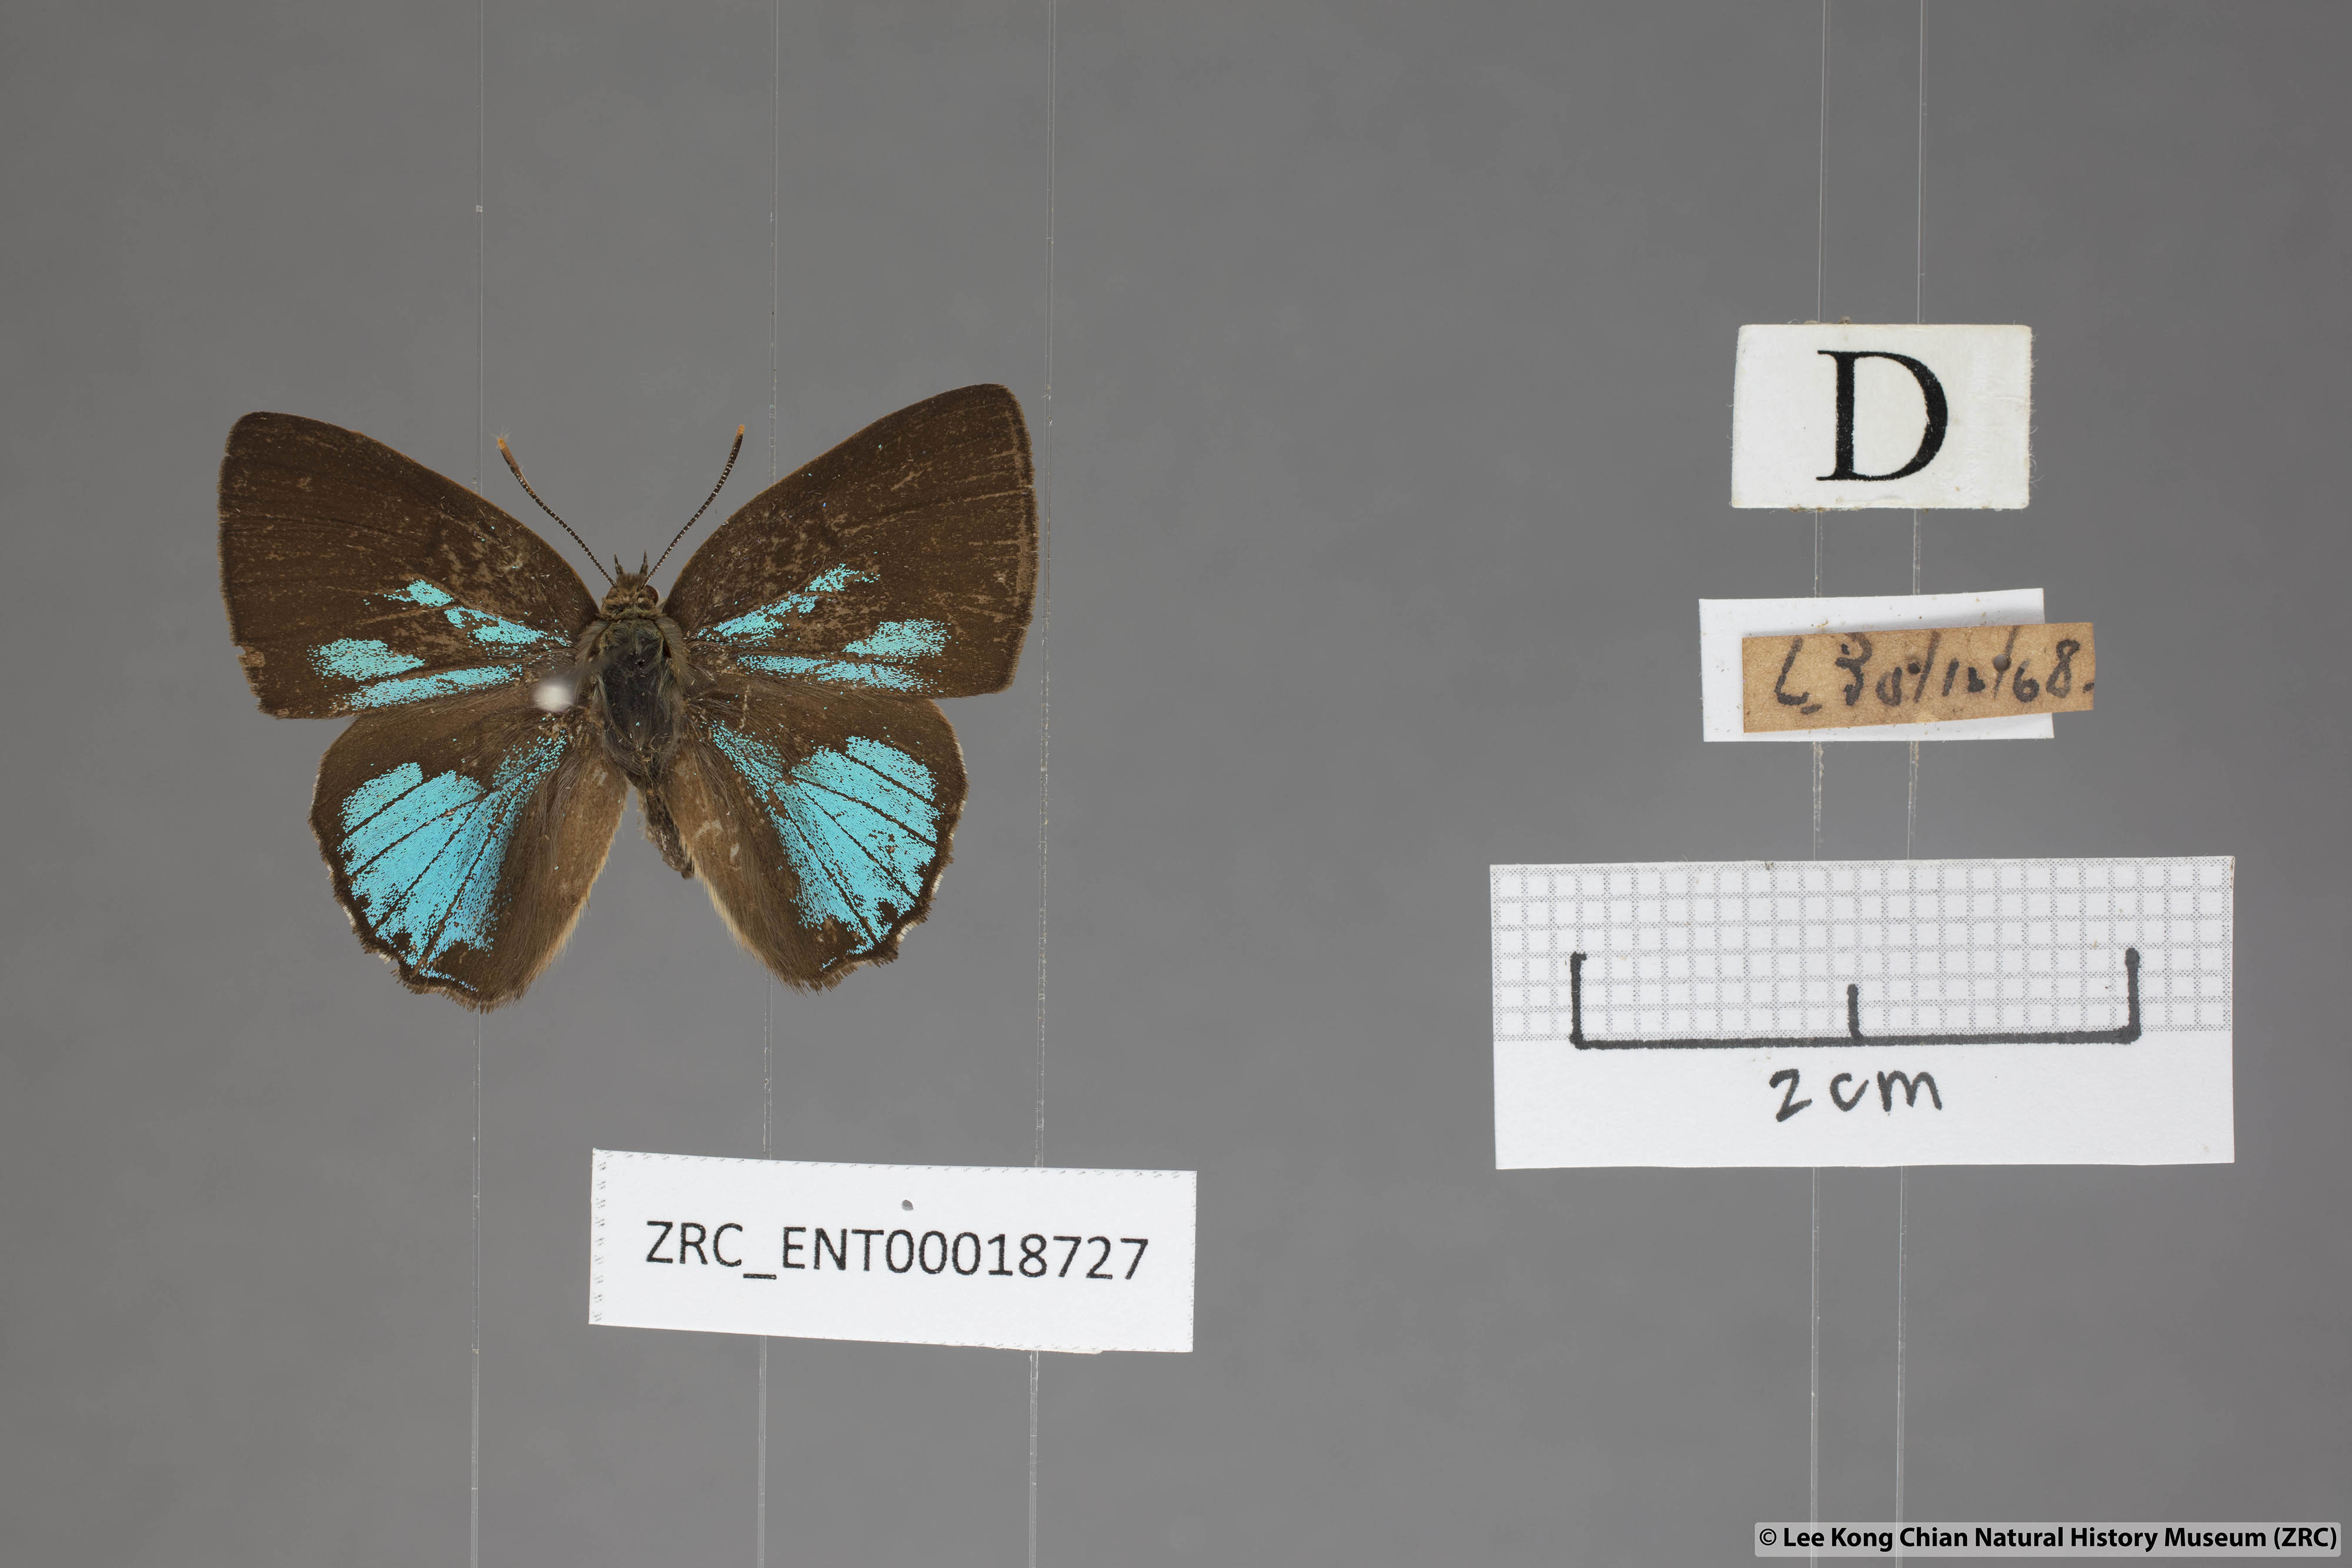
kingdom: Animalia
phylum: Arthropoda
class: Insecta
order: Lepidoptera
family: Lycaenidae
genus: Deramas
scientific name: Deramas livena
